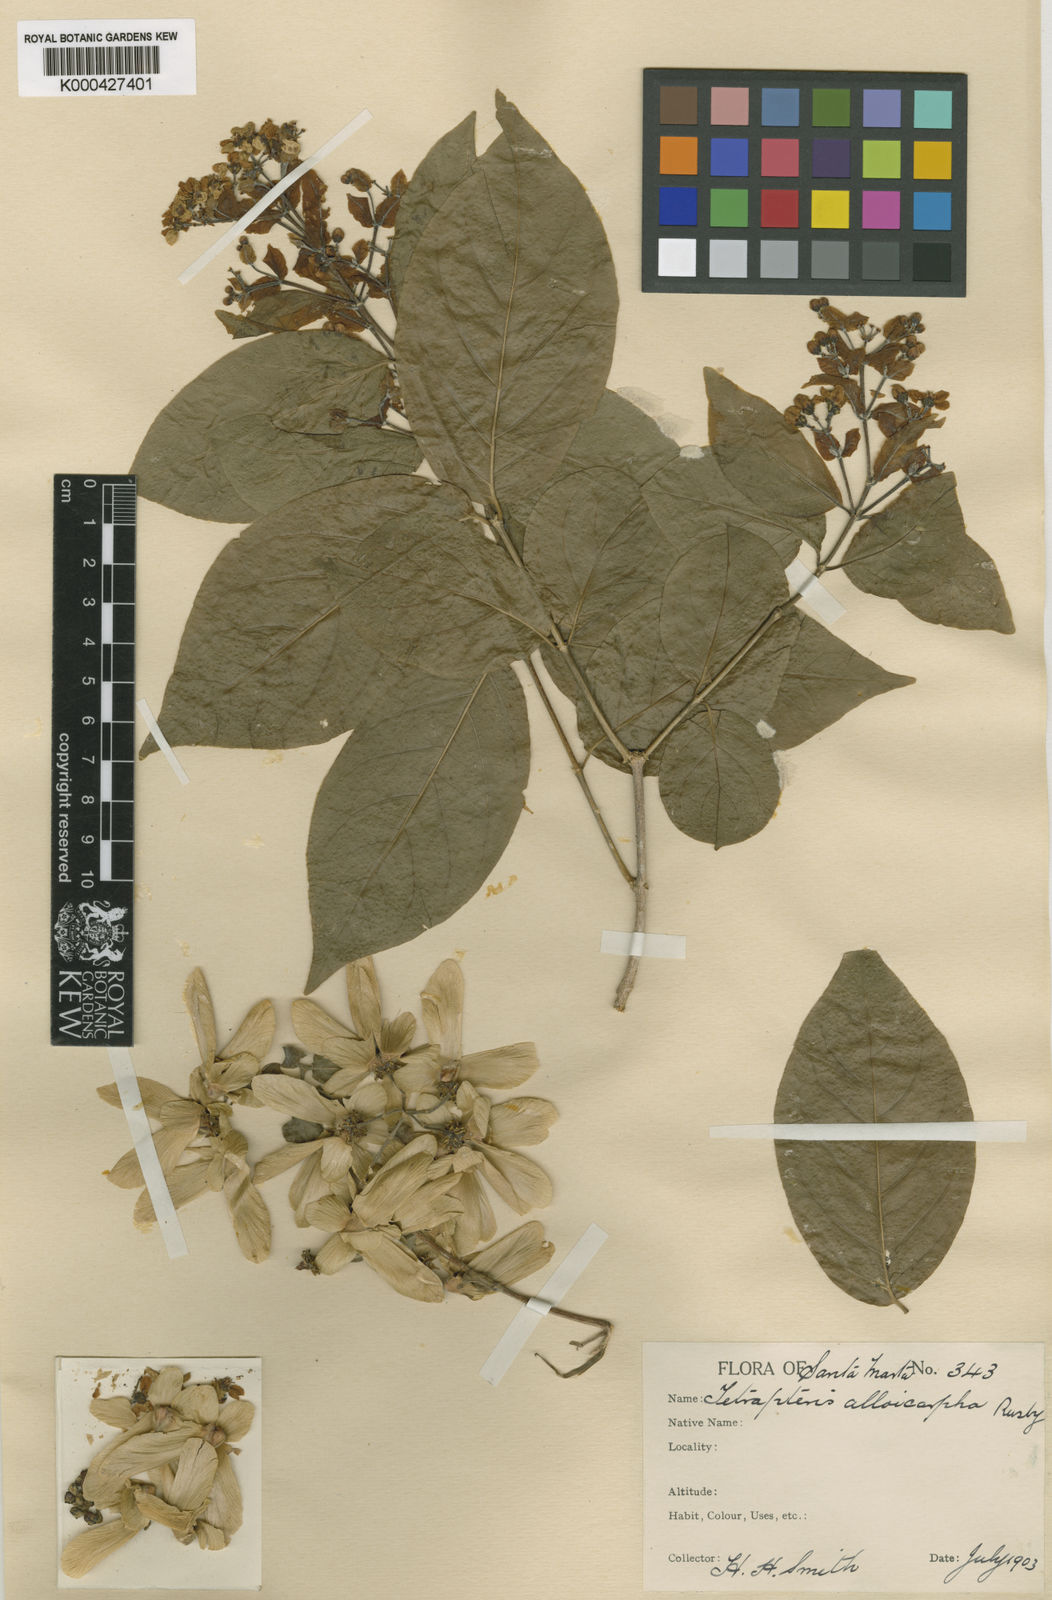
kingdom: Plantae
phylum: Tracheophyta
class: Magnoliopsida
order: Malpighiales
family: Malpighiaceae
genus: Tetrapterys
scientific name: Tetrapterys nitida
